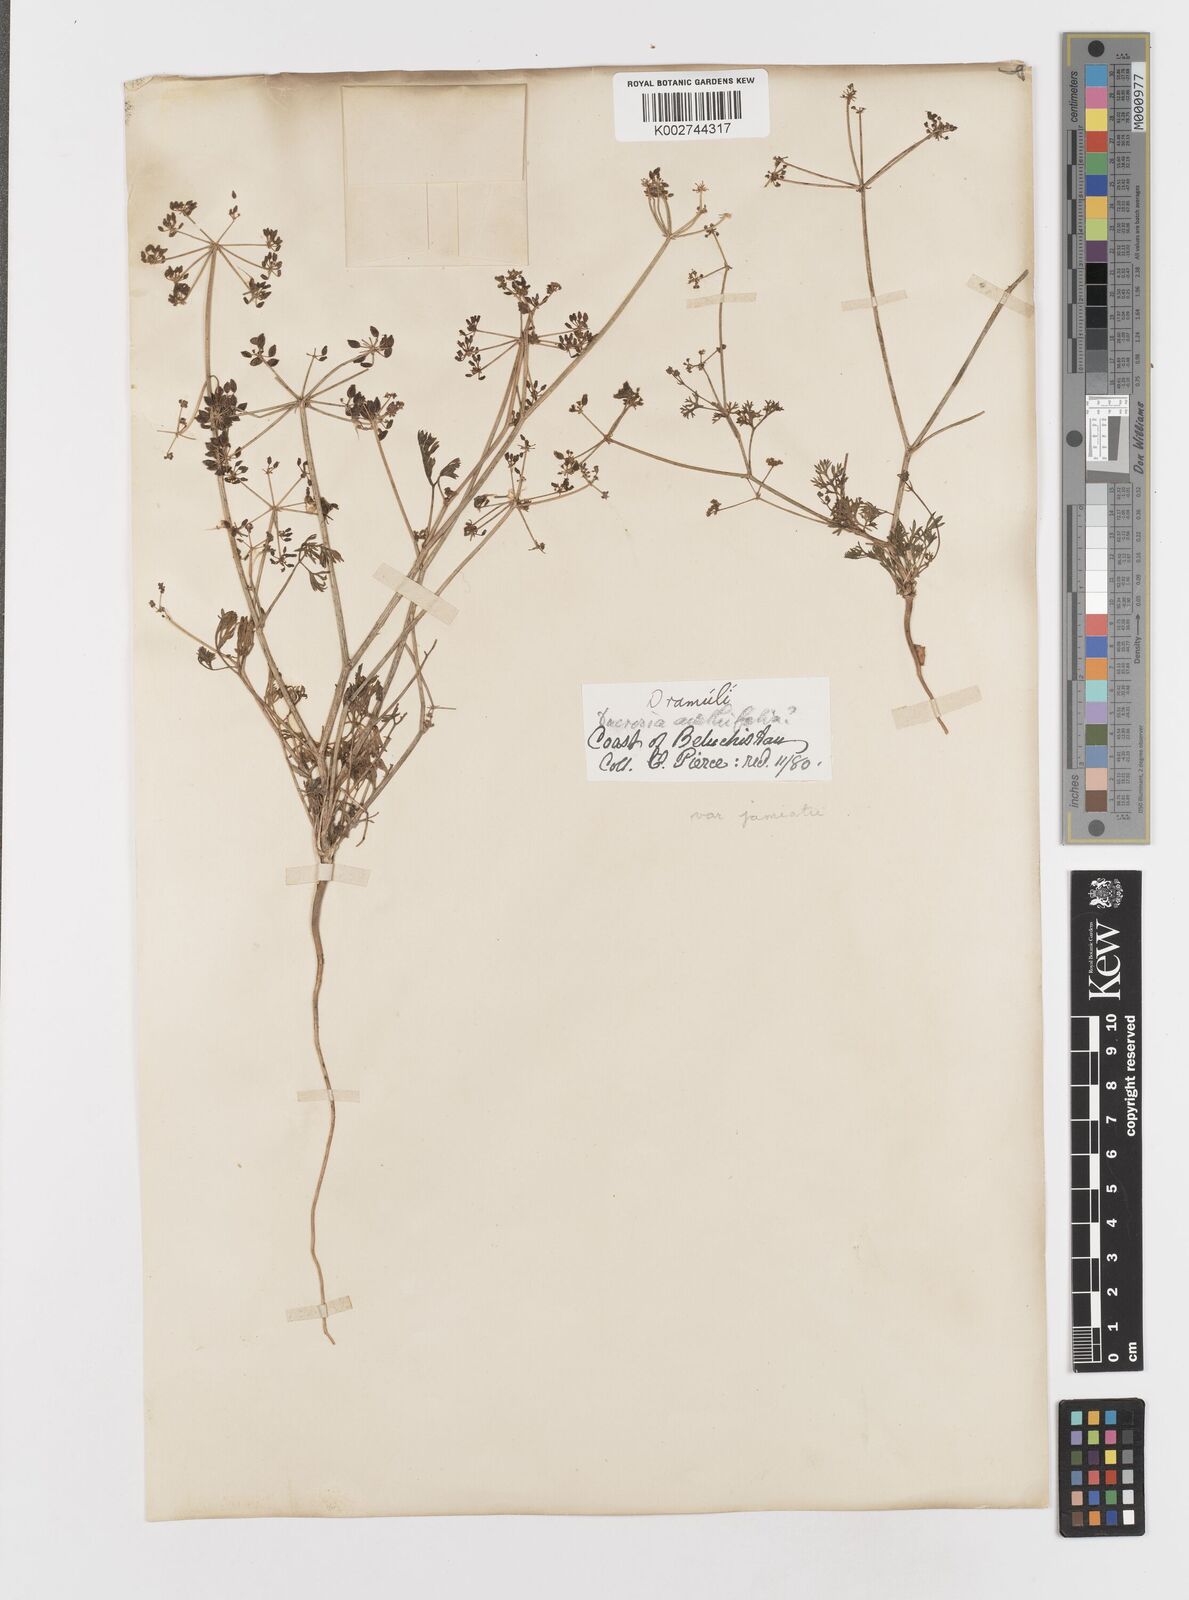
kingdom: Plantae
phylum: Tracheophyta
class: Magnoliopsida
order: Apiales
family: Apiaceae
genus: Ducrosia
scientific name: Ducrosia anethifolia
